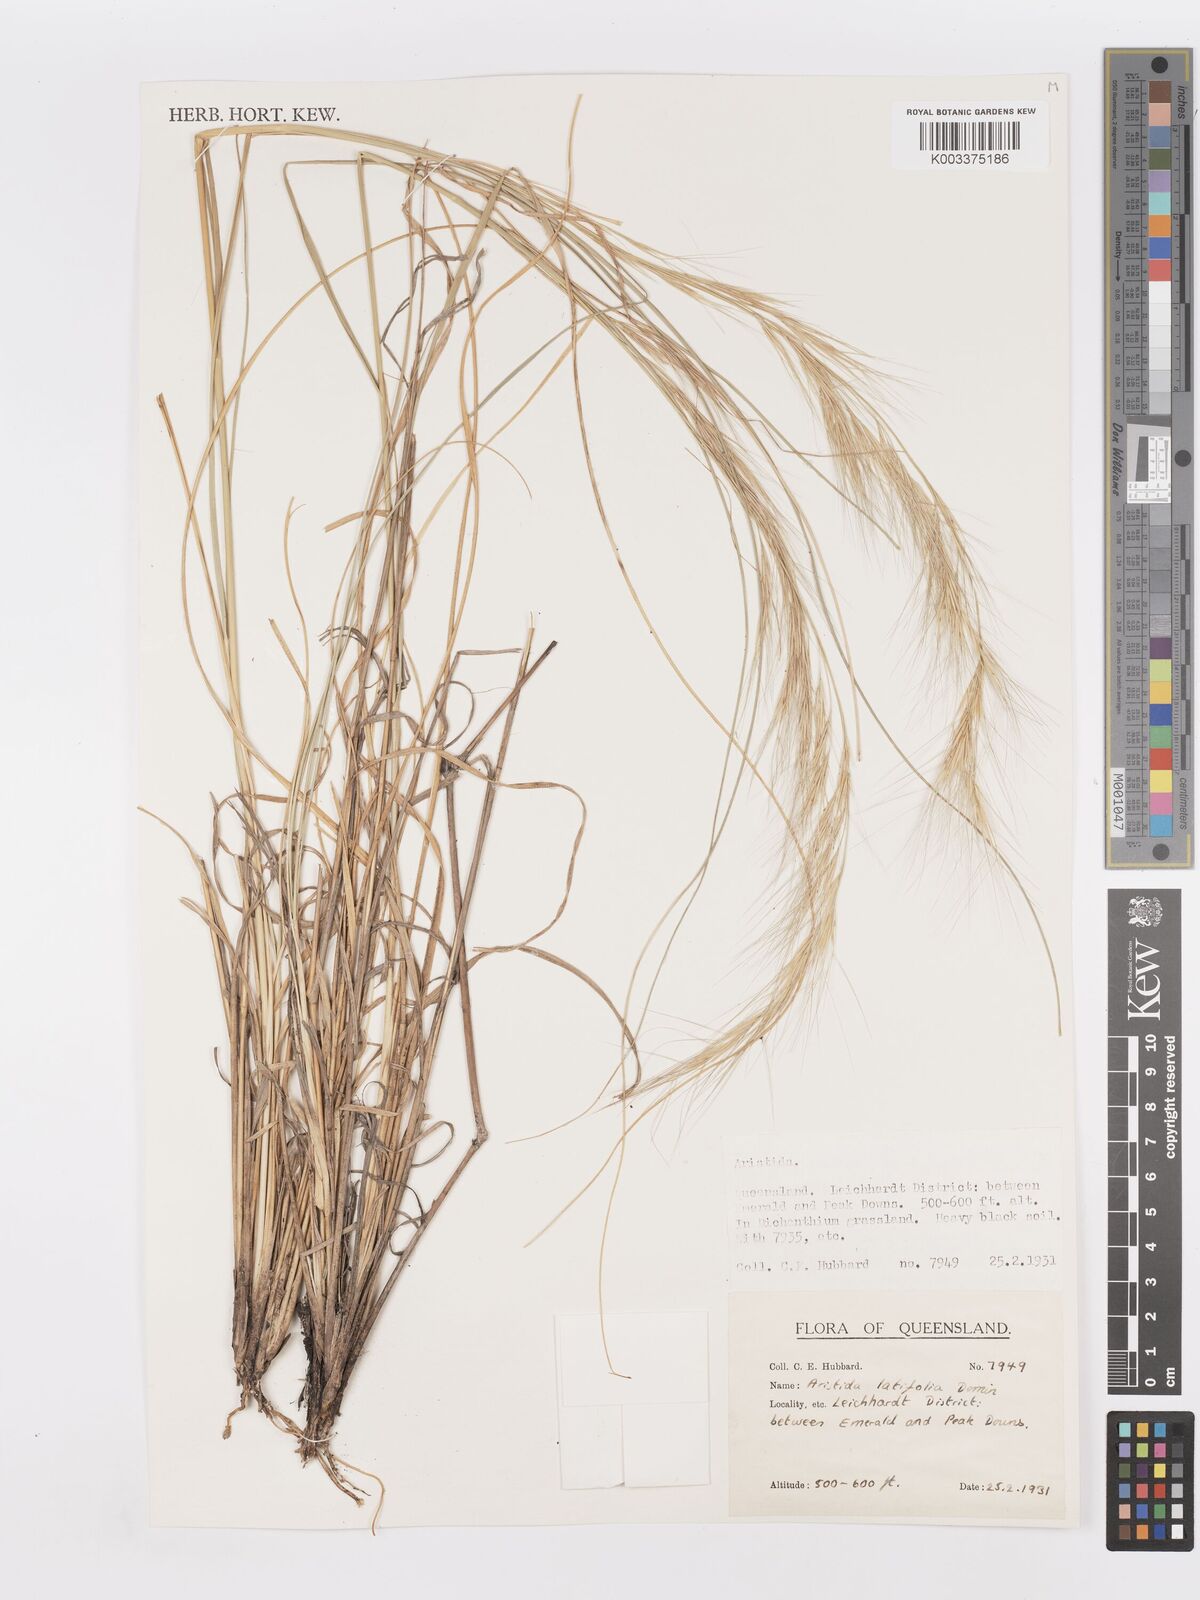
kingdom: Plantae
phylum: Tracheophyta
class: Liliopsida
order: Poales
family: Poaceae
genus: Aristida
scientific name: Aristida latifolia
